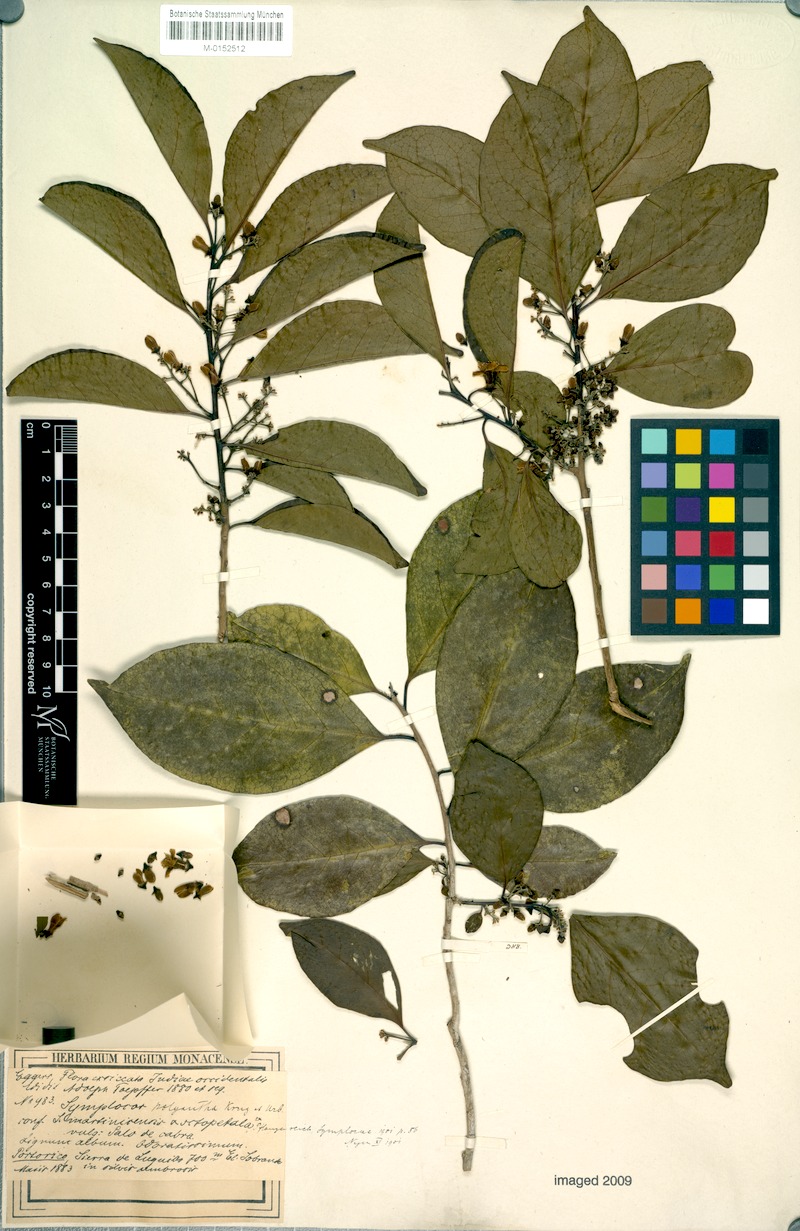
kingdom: Plantae
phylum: Tracheophyta
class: Magnoliopsida
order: Ericales
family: Symplocaceae
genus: Symplocos
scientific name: Symplocos latifolia
